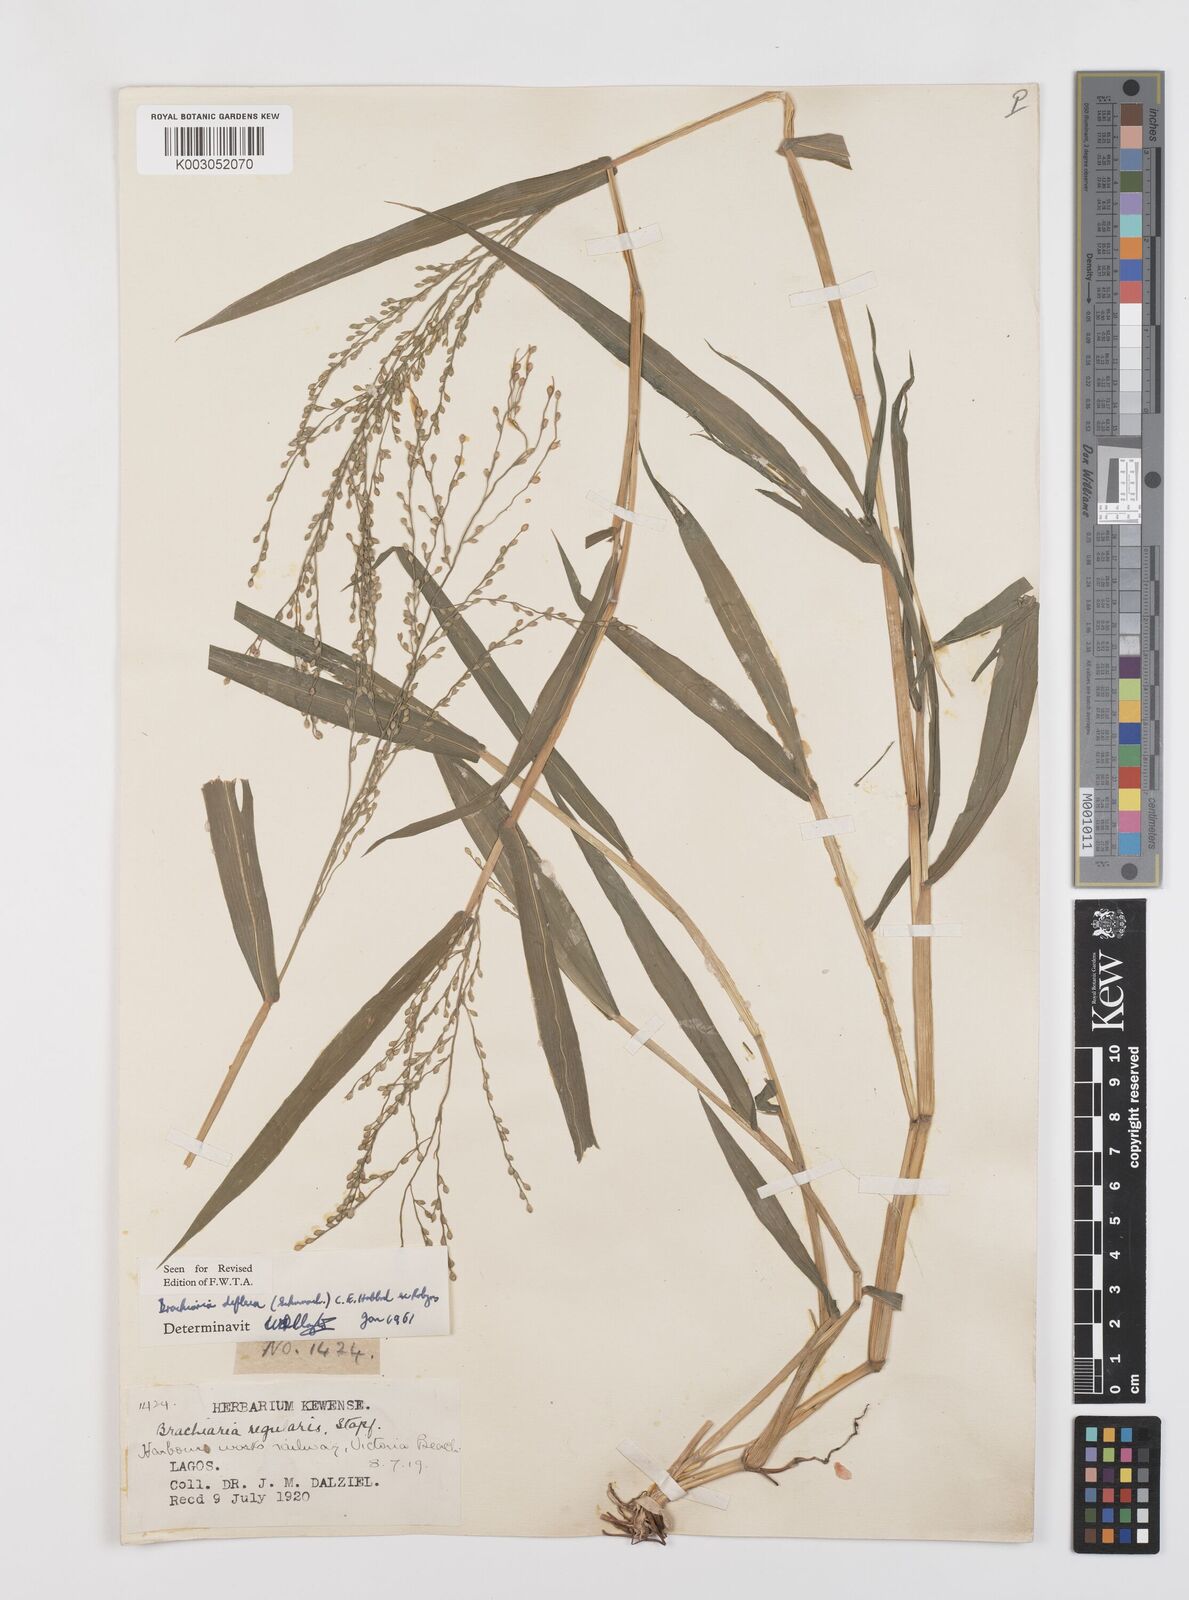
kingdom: Plantae
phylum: Tracheophyta
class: Liliopsida
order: Poales
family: Poaceae
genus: Urochloa
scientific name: Urochloa deflexa
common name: Guinea millet
